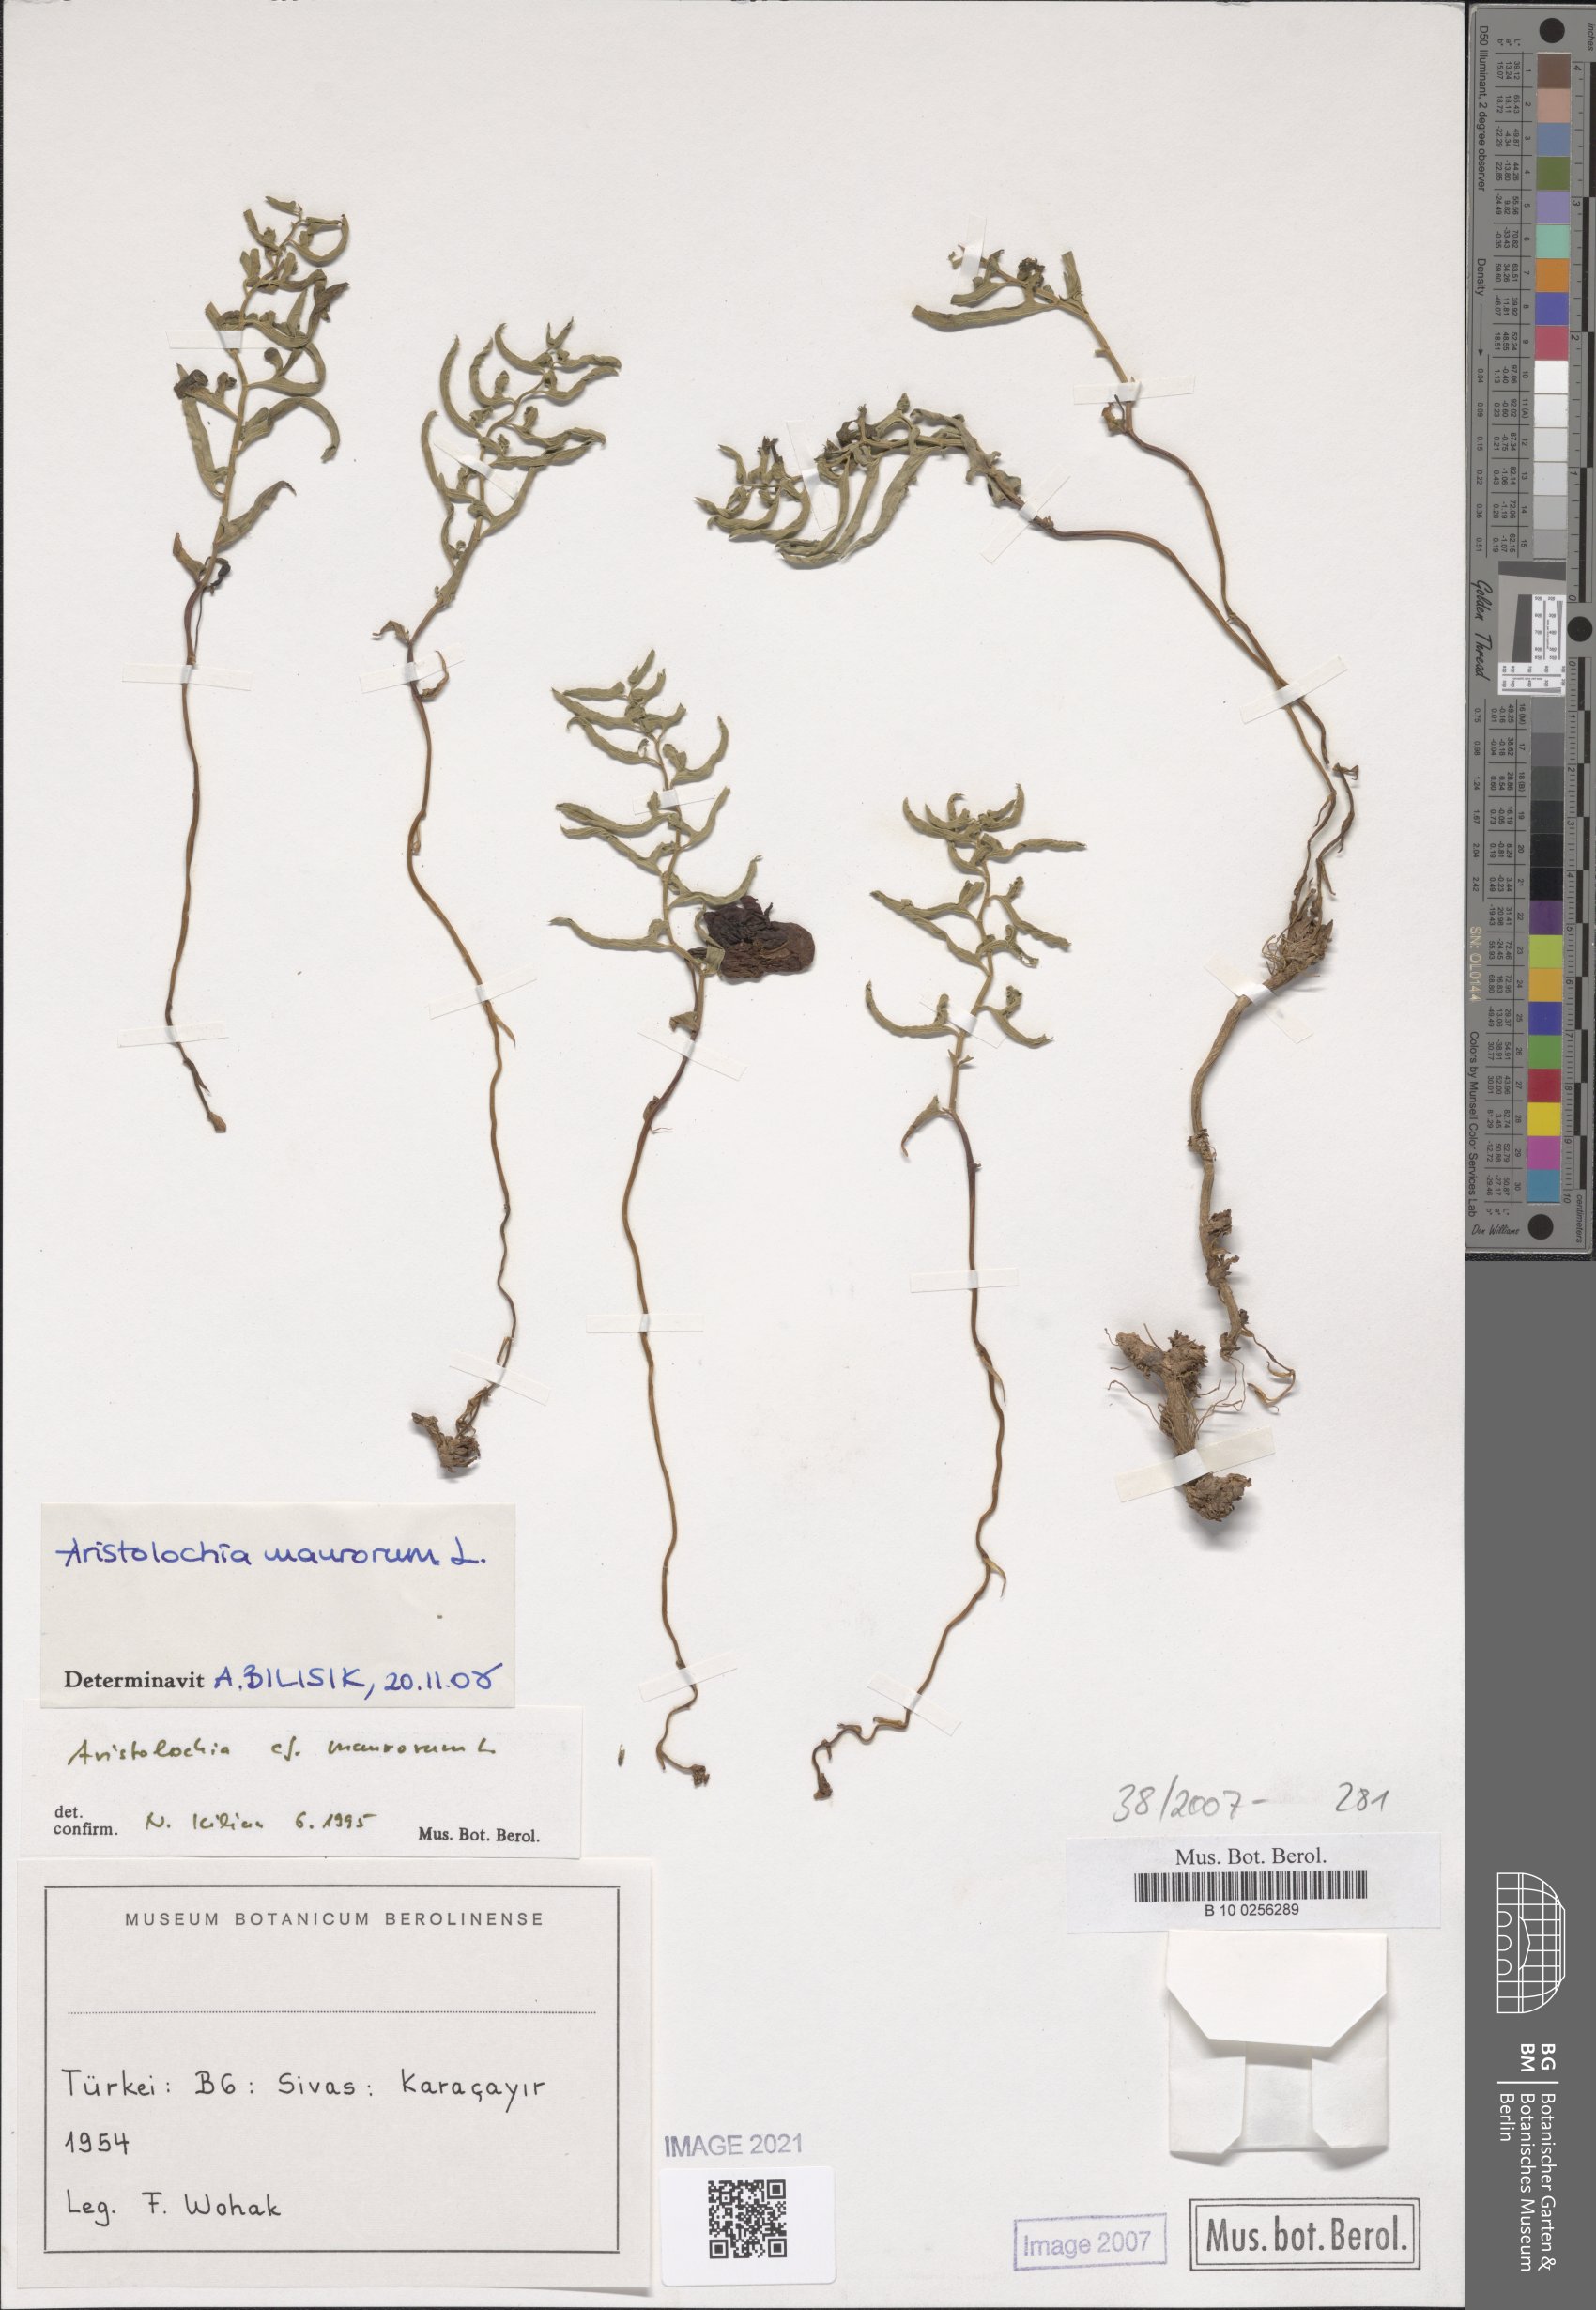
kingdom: Plantae
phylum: Tracheophyta
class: Magnoliopsida
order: Piperales
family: Aristolochiaceae
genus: Aristolochia
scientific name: Aristolochia maurorum
